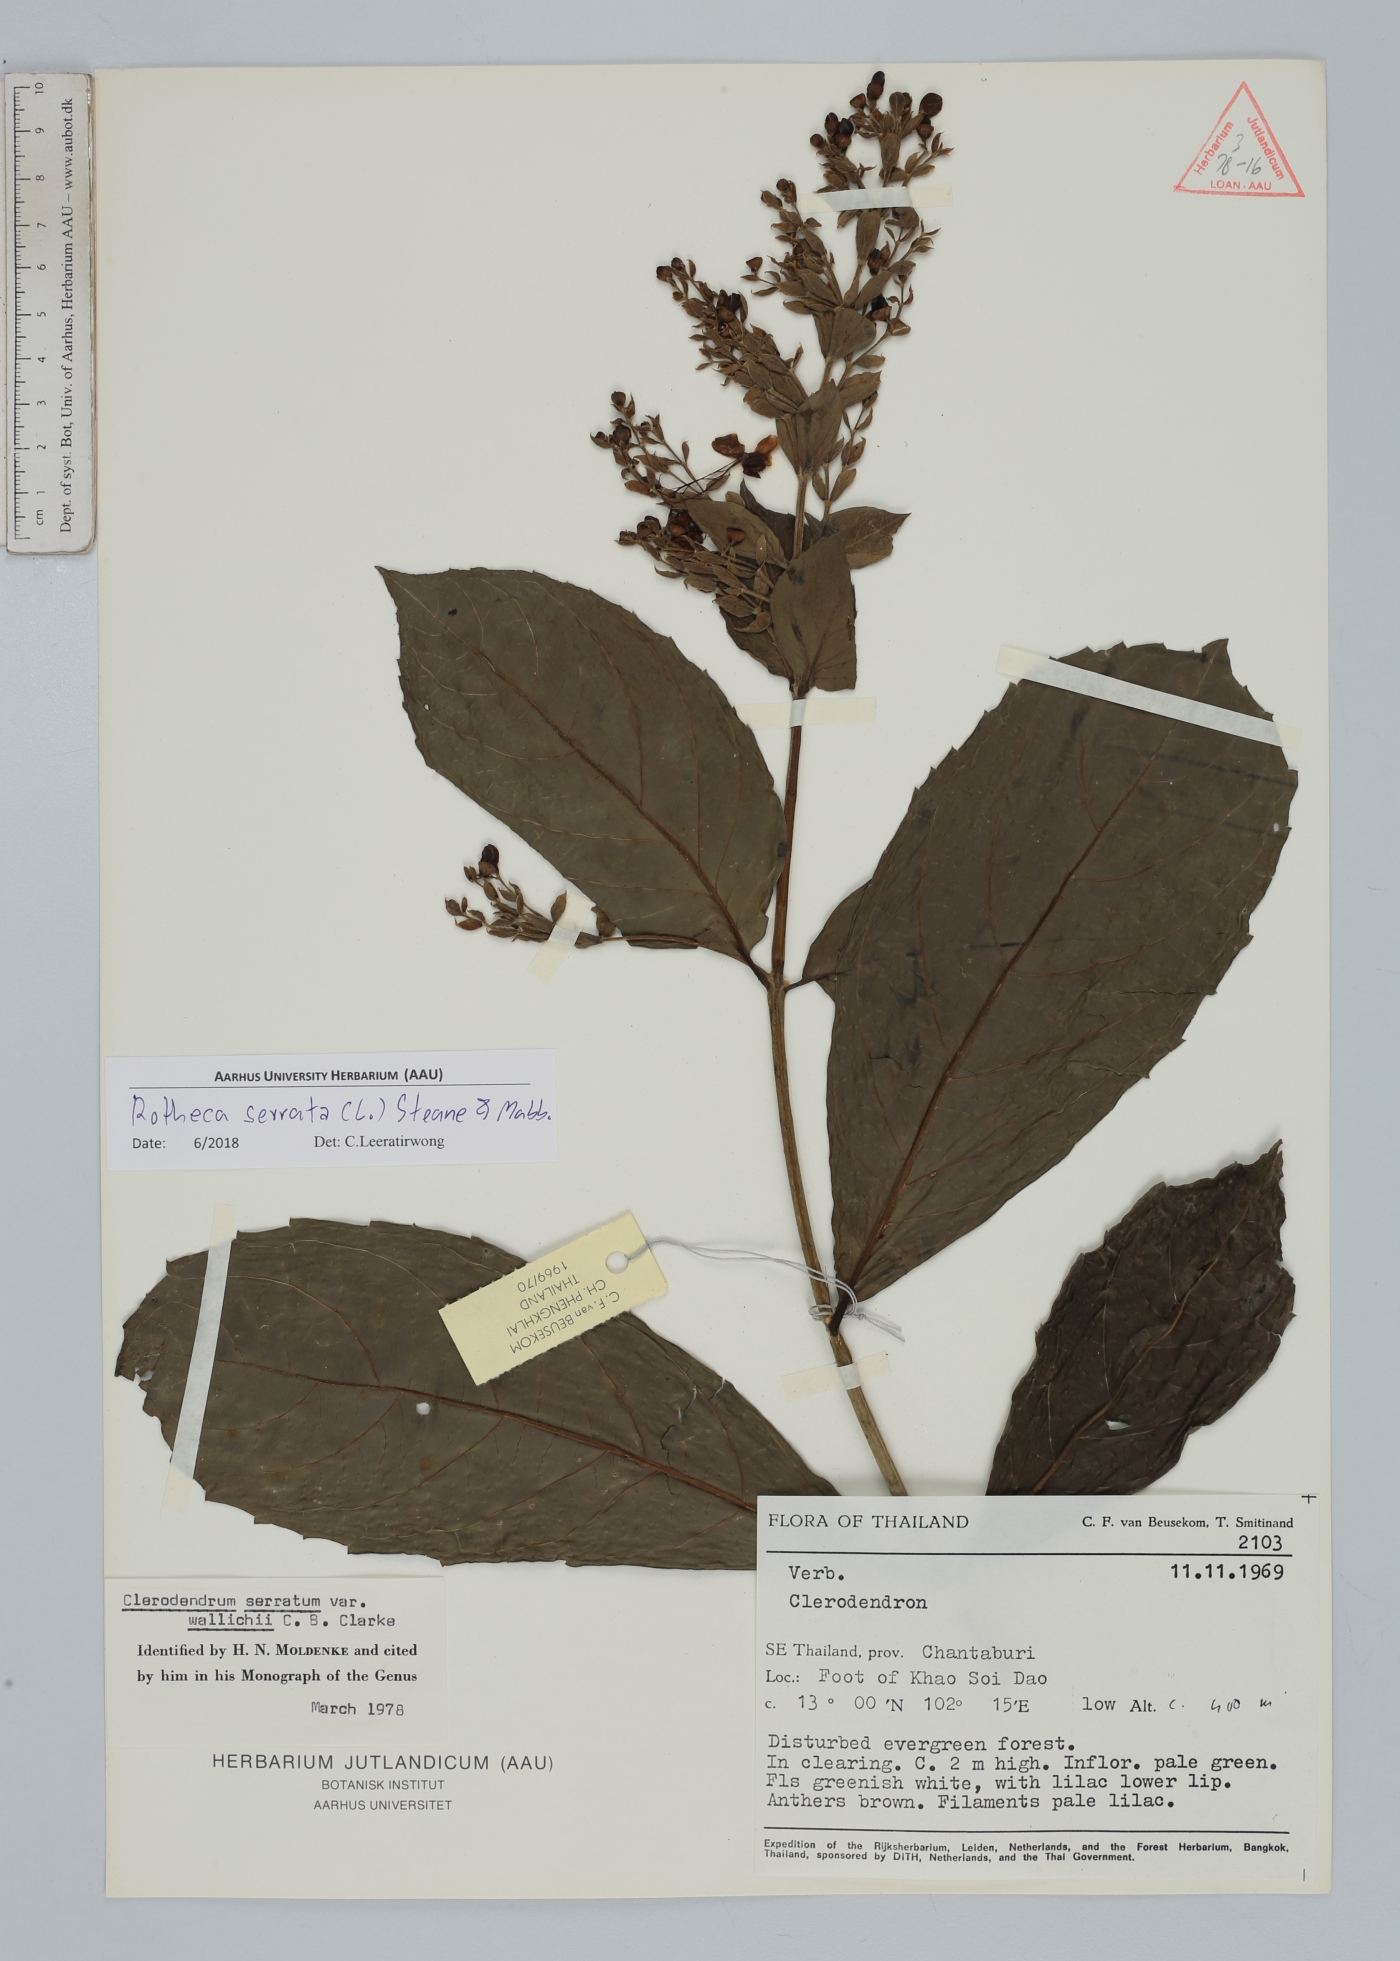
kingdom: Plantae
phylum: Tracheophyta
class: Magnoliopsida
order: Lamiales
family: Lamiaceae
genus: Rotheca
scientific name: Rotheca serrata
